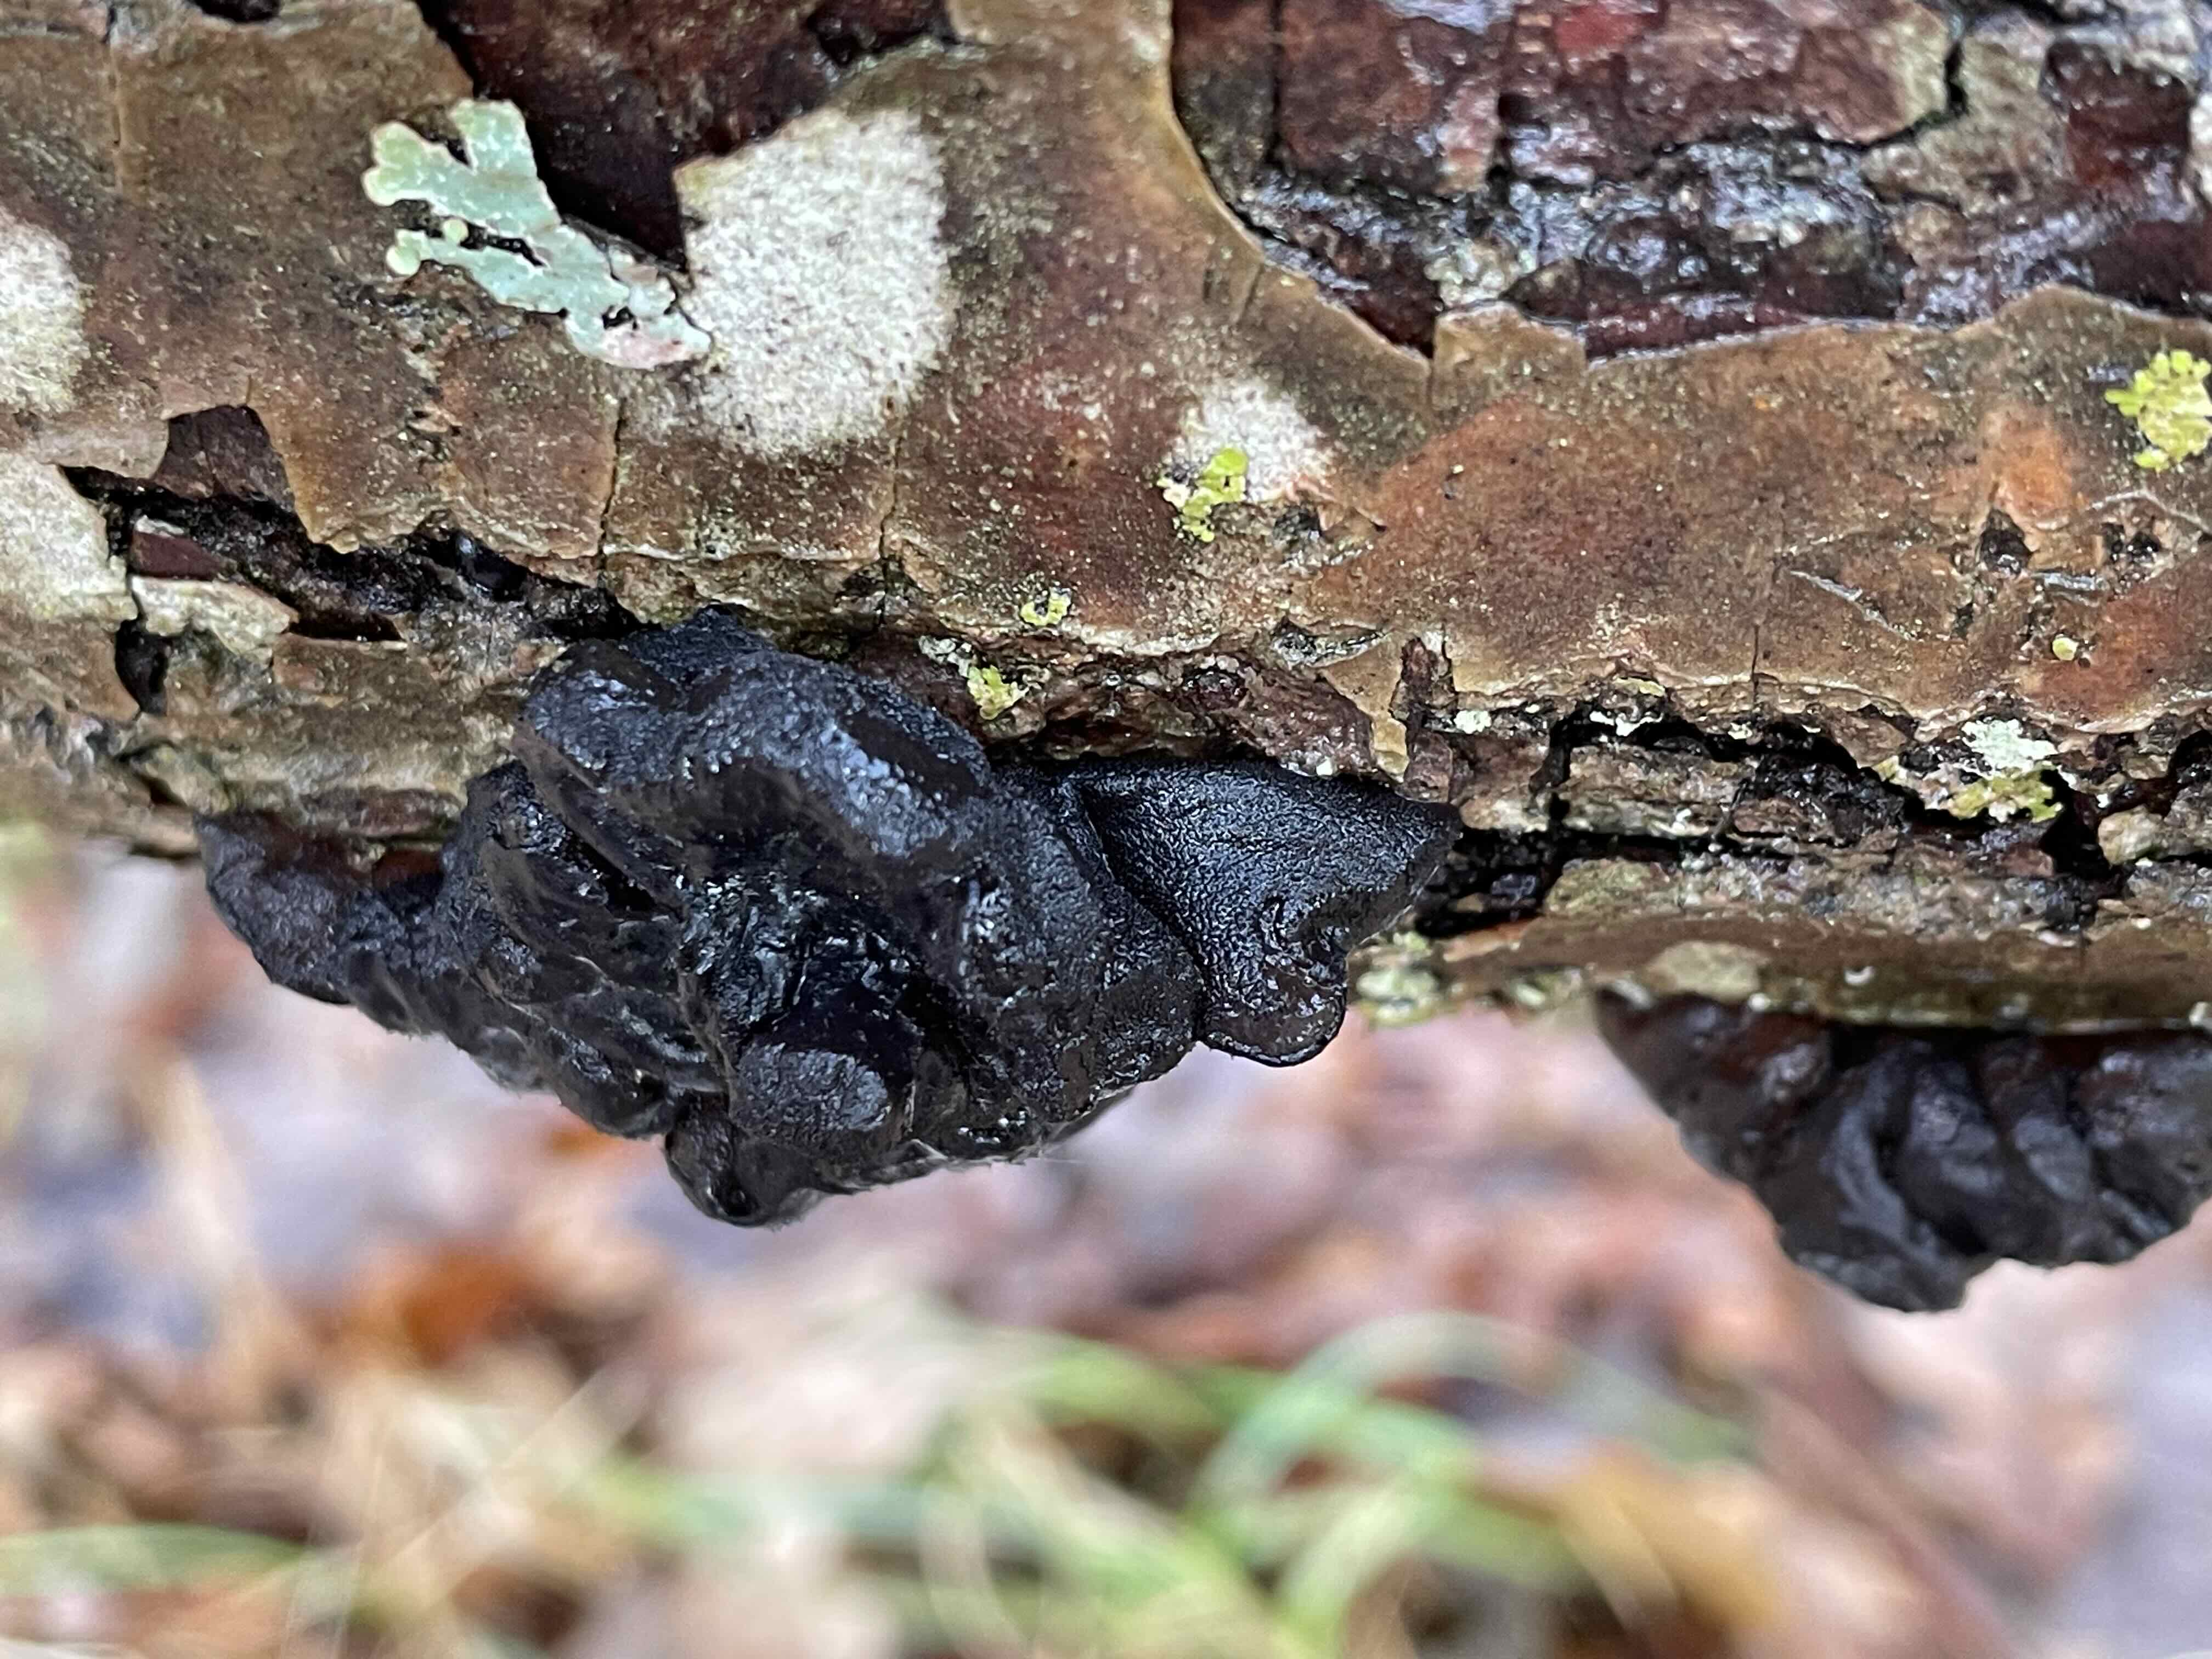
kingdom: Fungi
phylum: Basidiomycota
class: Agaricomycetes
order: Auriculariales
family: Auriculariaceae
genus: Exidia
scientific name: Exidia glandulosa
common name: ege-bævretop
